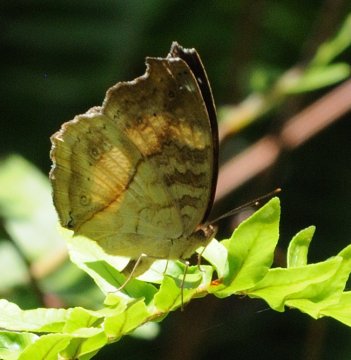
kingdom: Animalia
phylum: Arthropoda
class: Insecta
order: Lepidoptera
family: Nymphalidae
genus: Junonia
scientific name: Junonia terea
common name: Soldier Pansy
